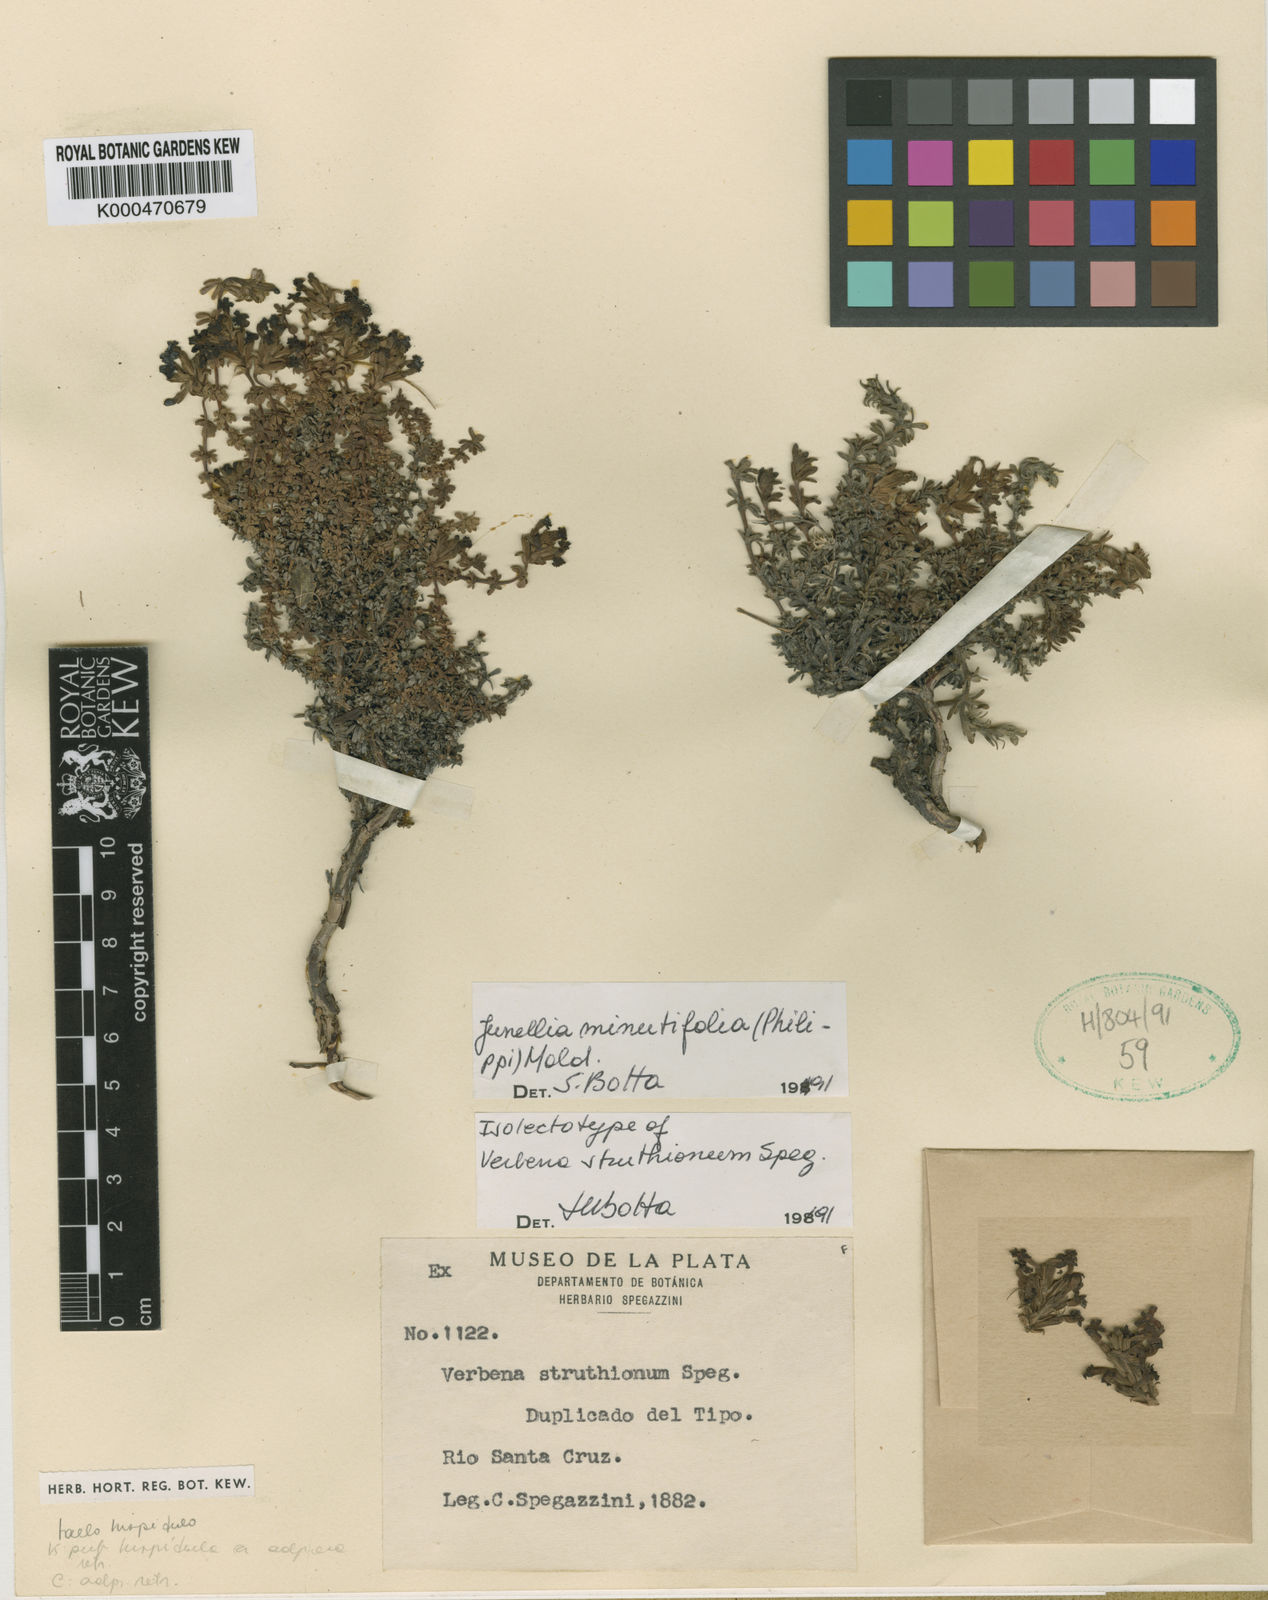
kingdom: Plantae
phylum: Tracheophyta
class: Magnoliopsida
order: Lamiales
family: Verbenaceae
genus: Junellia
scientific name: Junellia tridactylites
